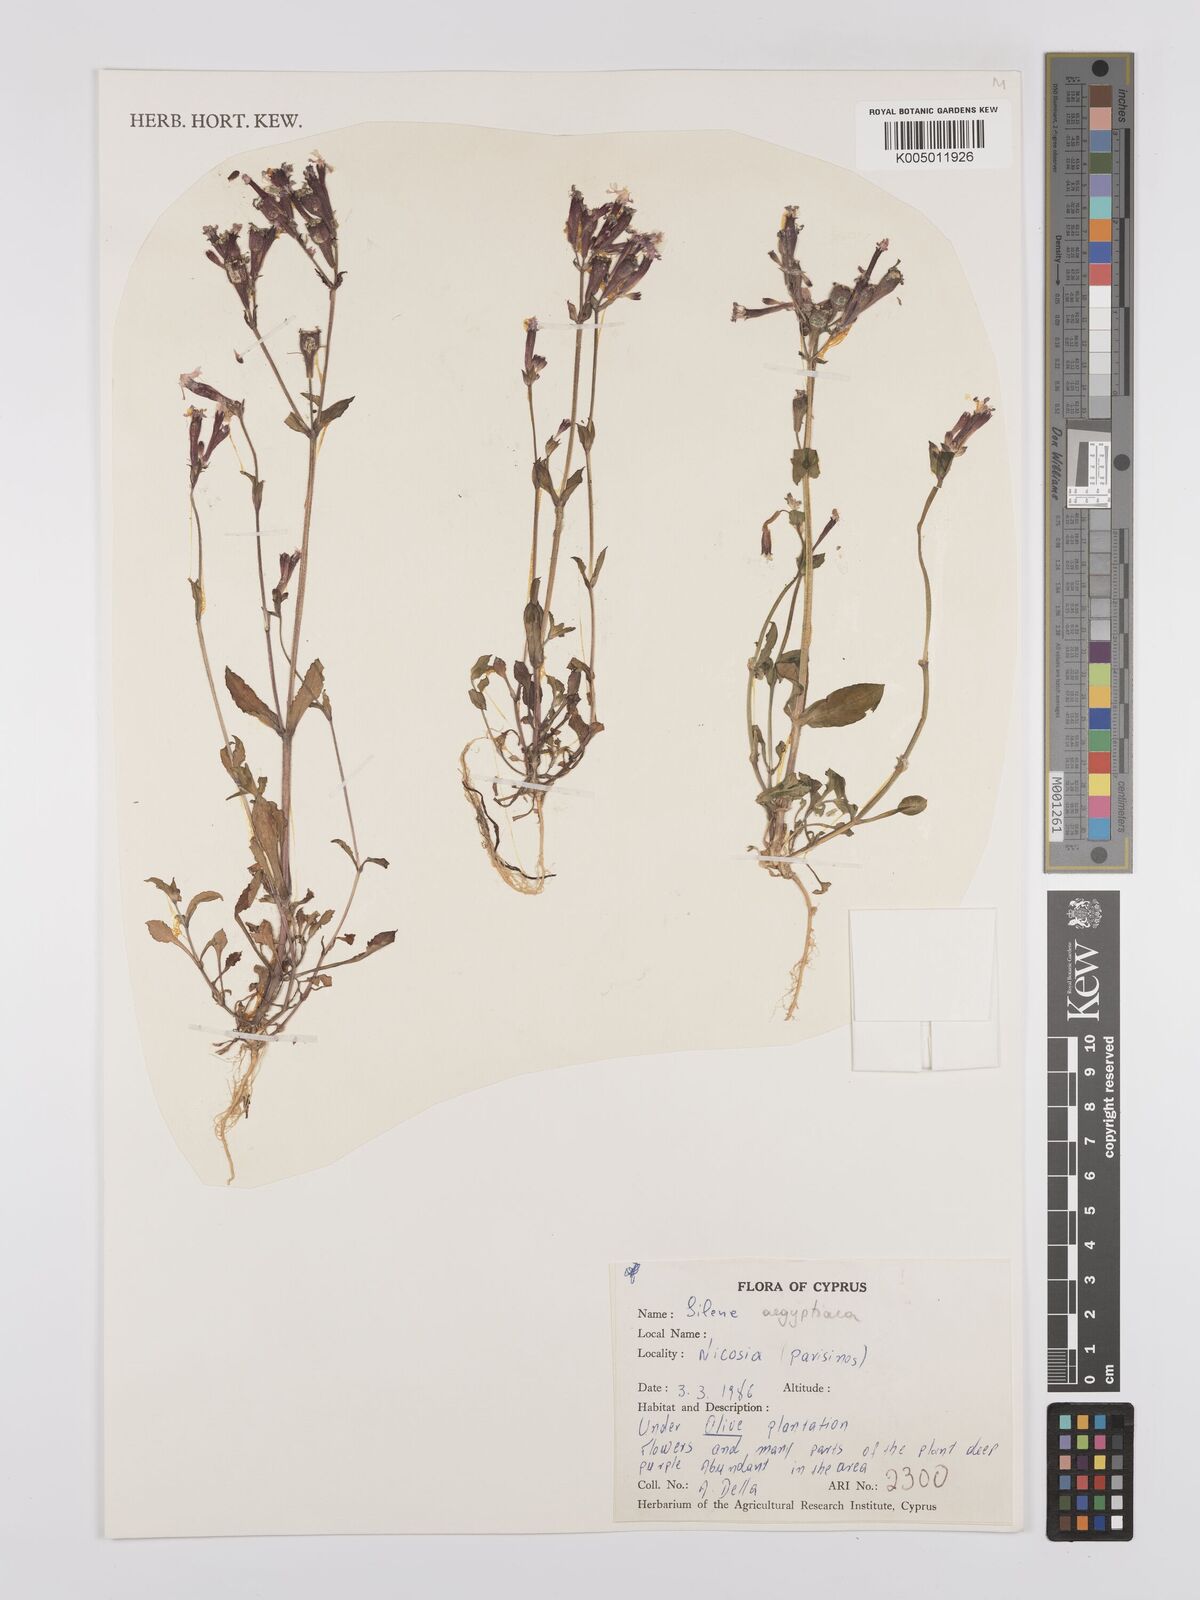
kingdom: Plantae
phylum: Tracheophyta
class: Magnoliopsida
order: Caryophyllales
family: Caryophyllaceae
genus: Silene
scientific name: Silene aegyptiaca
